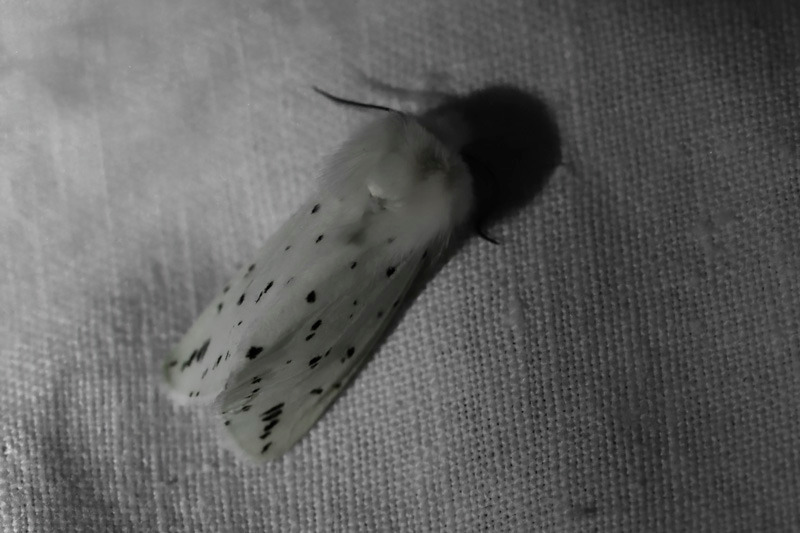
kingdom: Animalia
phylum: Arthropoda
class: Insecta
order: Lepidoptera
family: Erebidae
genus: Spilosoma
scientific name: Spilosoma lubricipeda
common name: Almindelig tigerspinder
